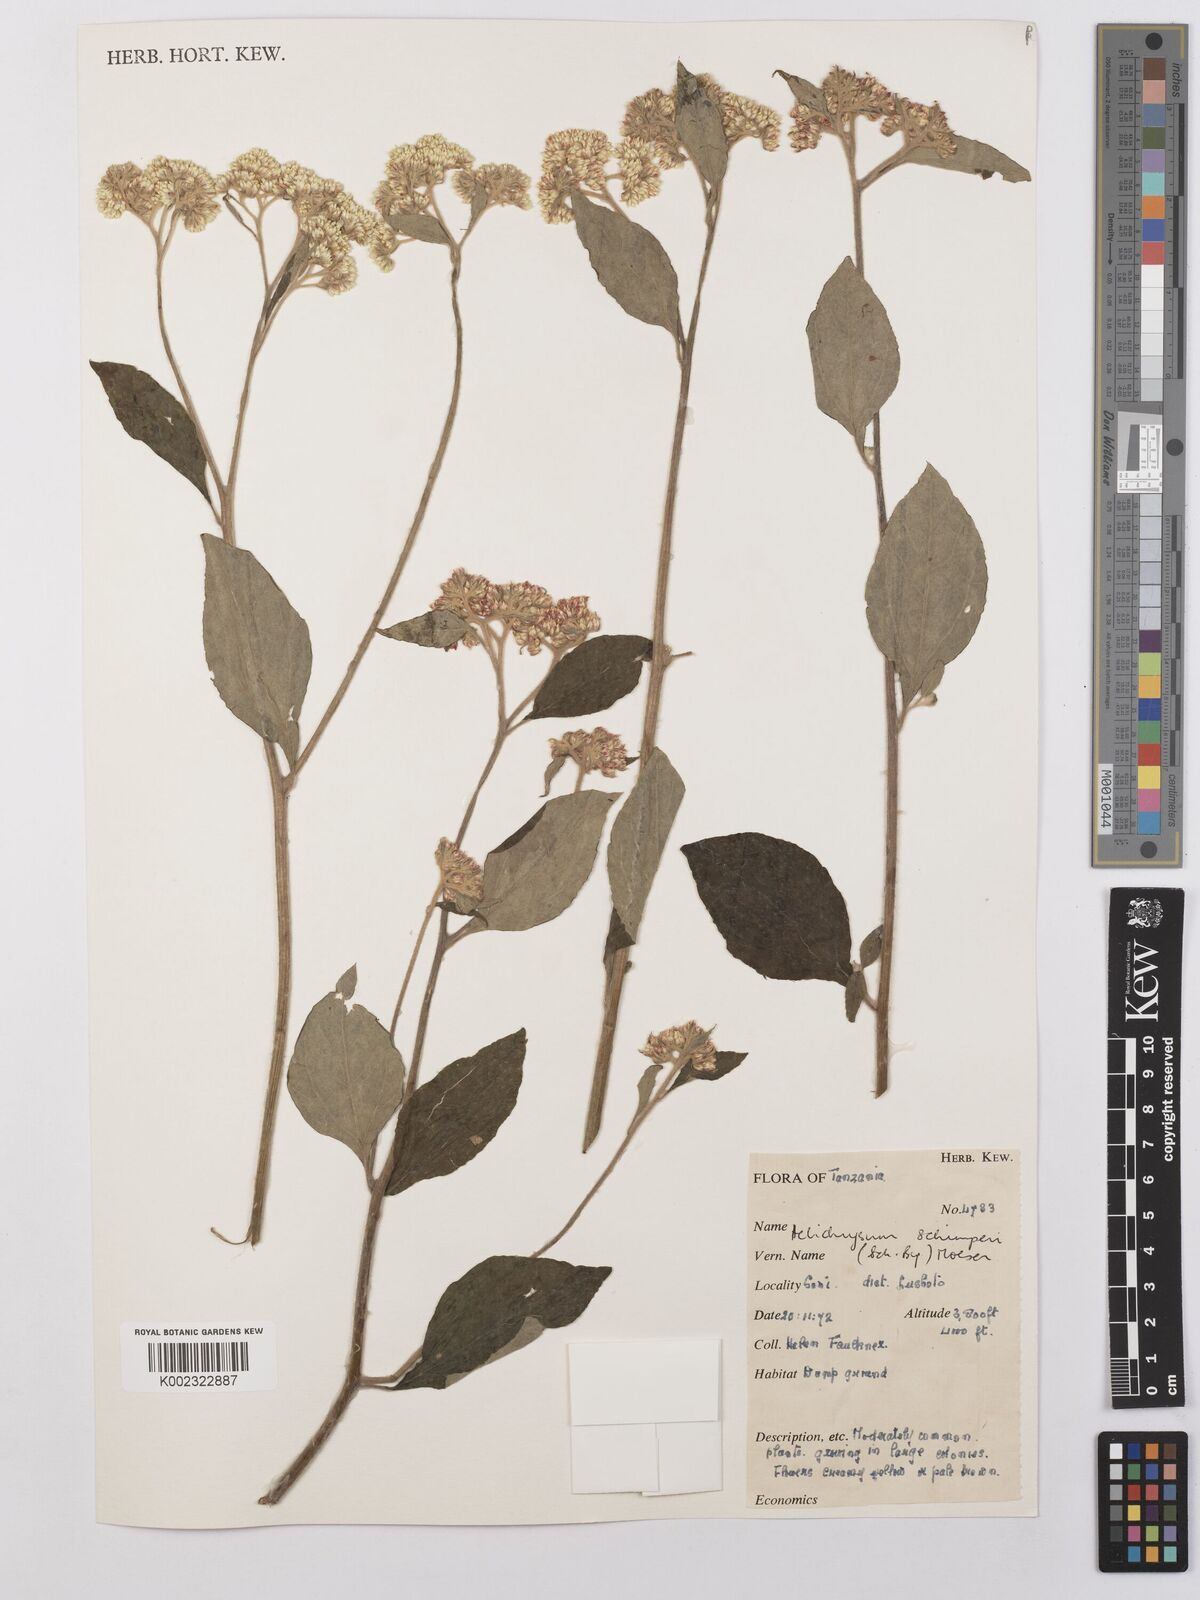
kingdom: Plantae
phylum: Tracheophyta
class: Magnoliopsida
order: Asterales
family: Asteraceae
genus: Helichrysum
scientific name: Helichrysum schimperi
